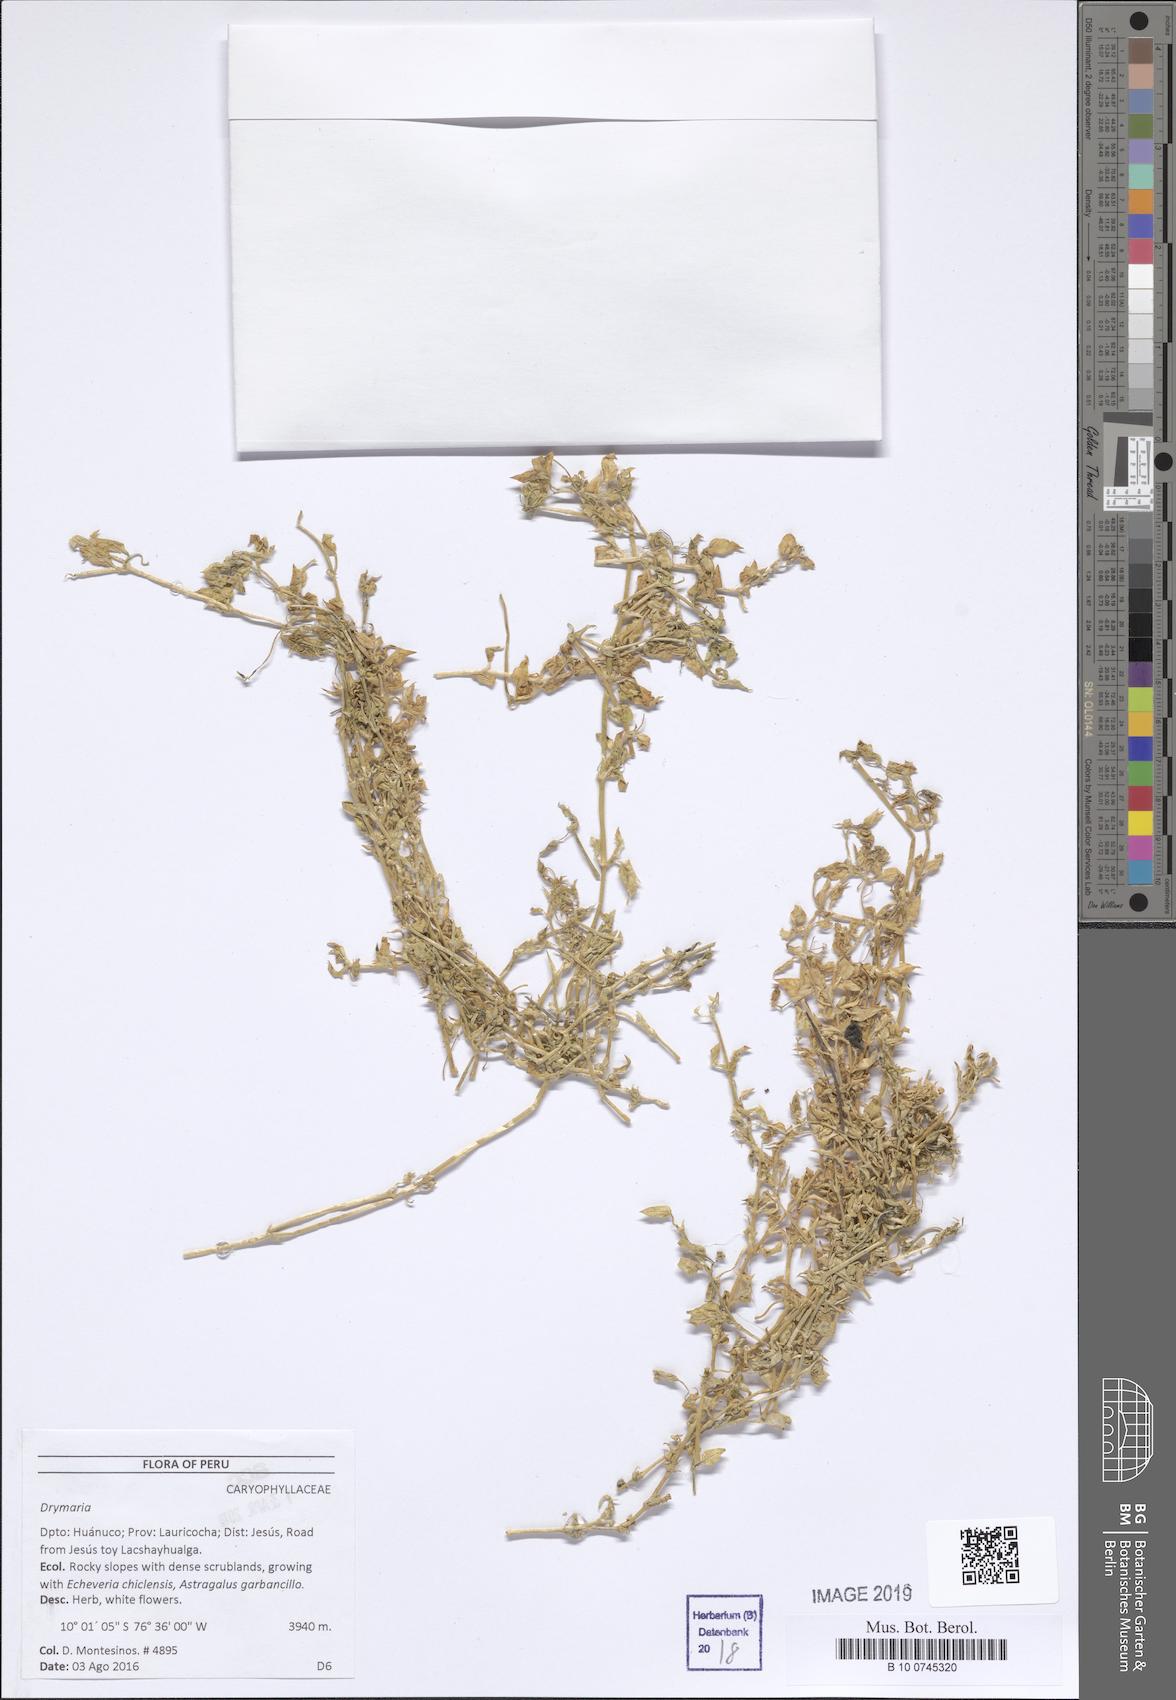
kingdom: Plantae
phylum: Tracheophyta
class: Magnoliopsida
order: Caryophyllales
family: Caryophyllaceae
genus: Drymaria
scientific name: Drymaria
